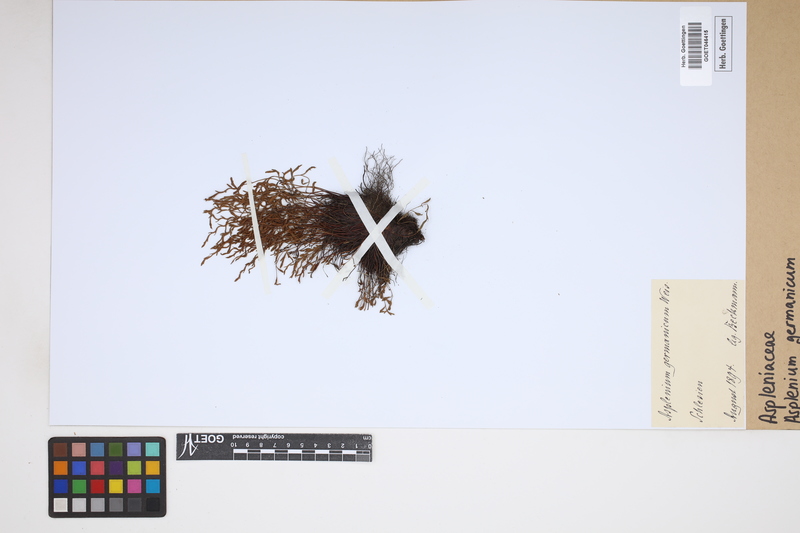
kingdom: Plantae
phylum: Tracheophyta
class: Polypodiopsida
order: Polypodiales
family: Aspleniaceae
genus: Asplenium
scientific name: Asplenium
